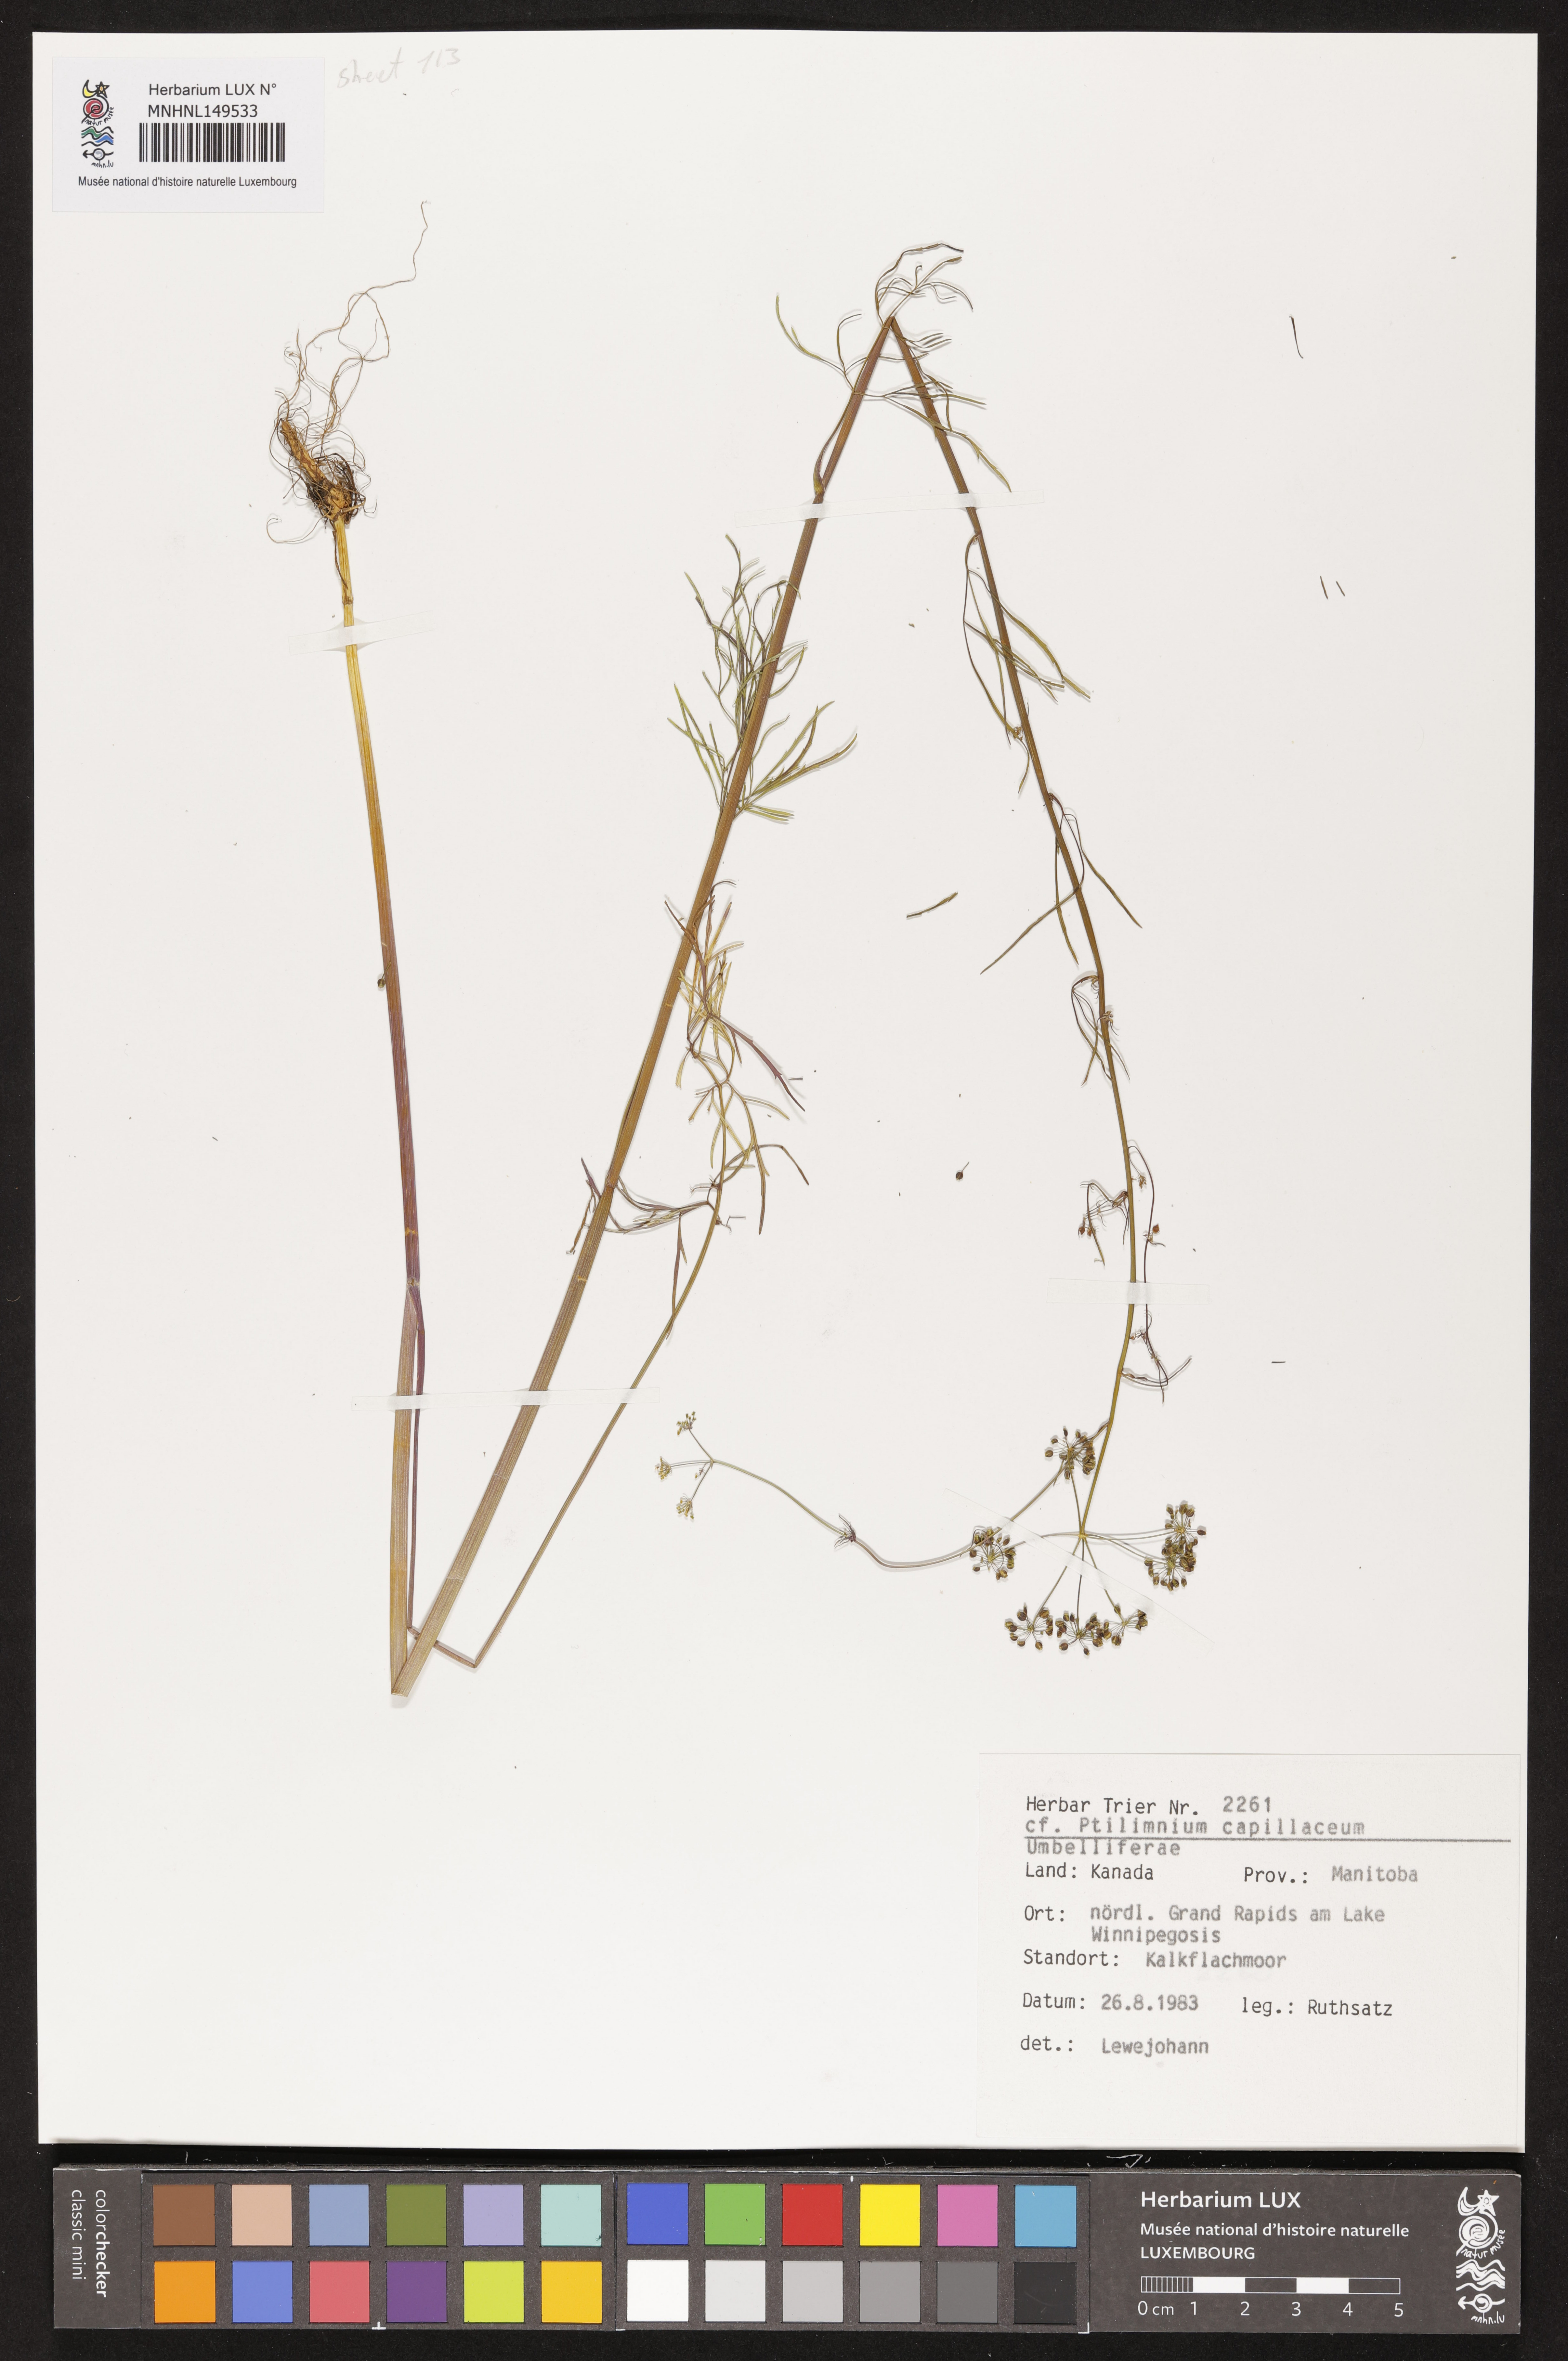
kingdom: Plantae
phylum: Tracheophyta
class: Magnoliopsida
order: Apiales
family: Apiaceae
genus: Ptilimnium
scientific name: Ptilimnium capillaceum
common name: Herbwilliam
